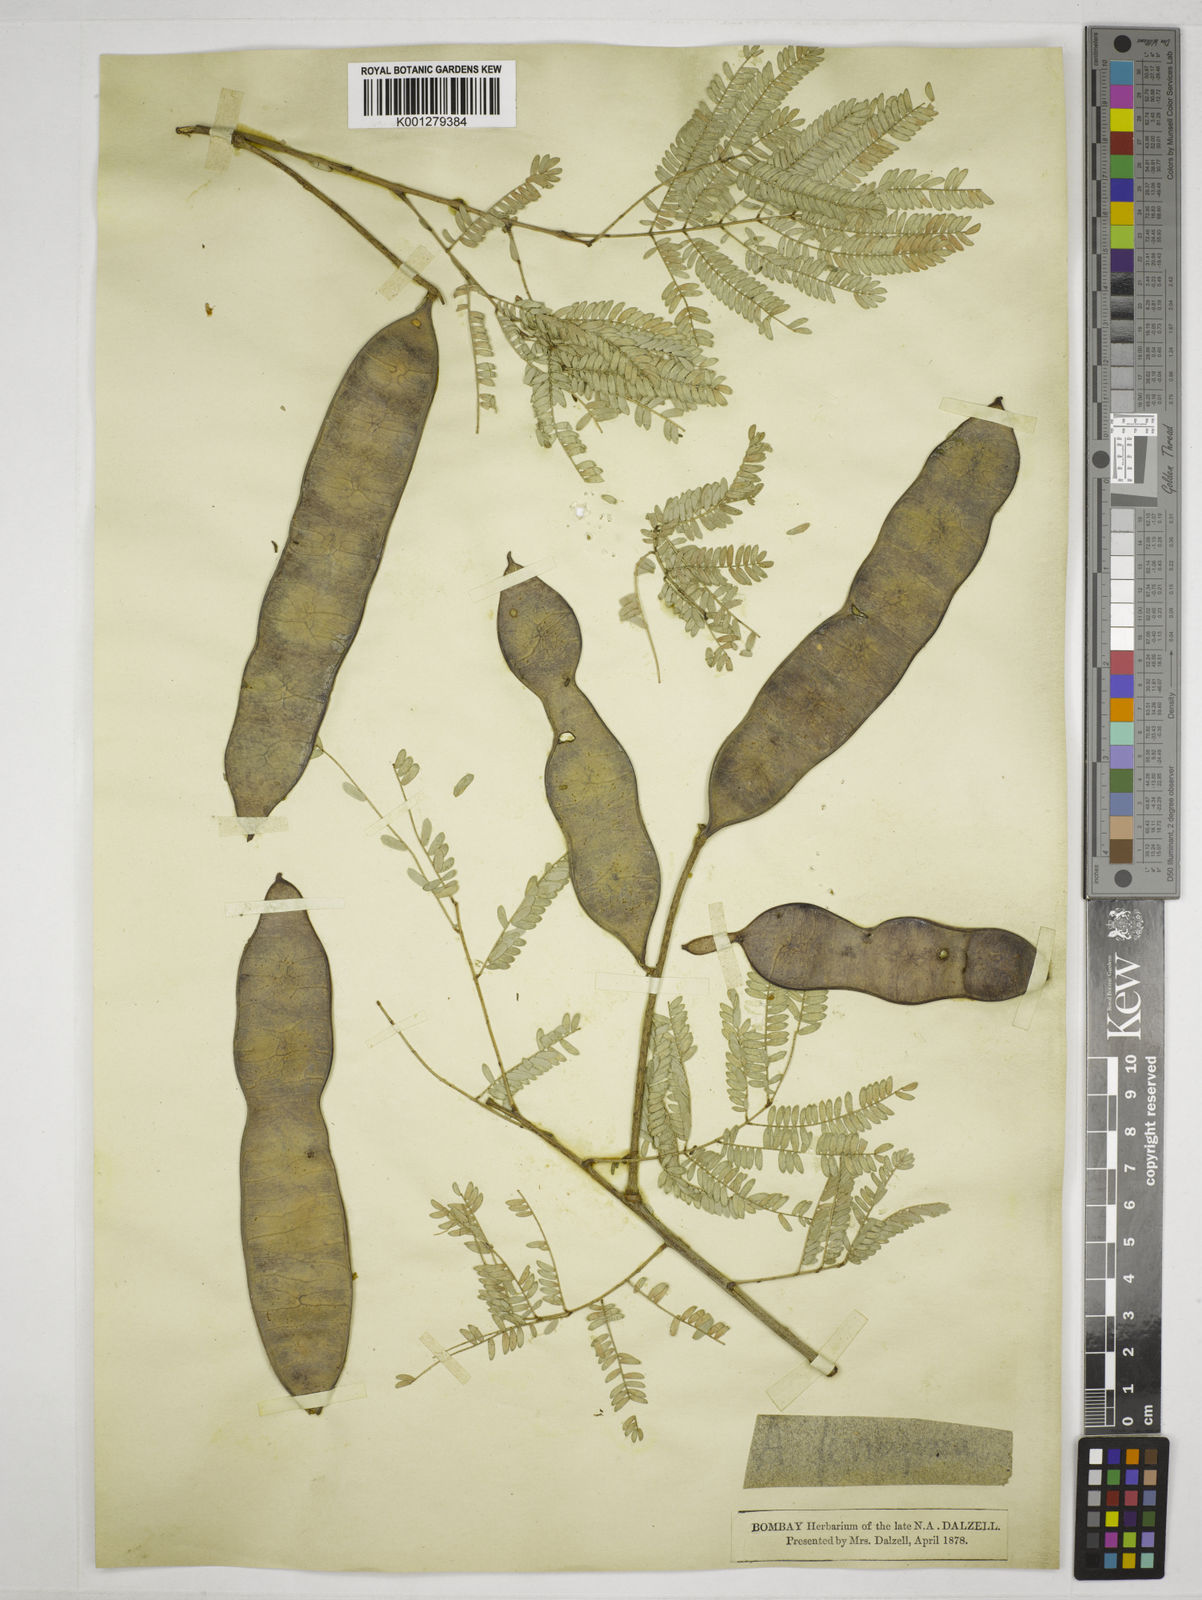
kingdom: Plantae
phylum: Tracheophyta
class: Magnoliopsida
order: Fabales
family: Fabaceae
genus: Senegalia
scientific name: Senegalia ferruginea
